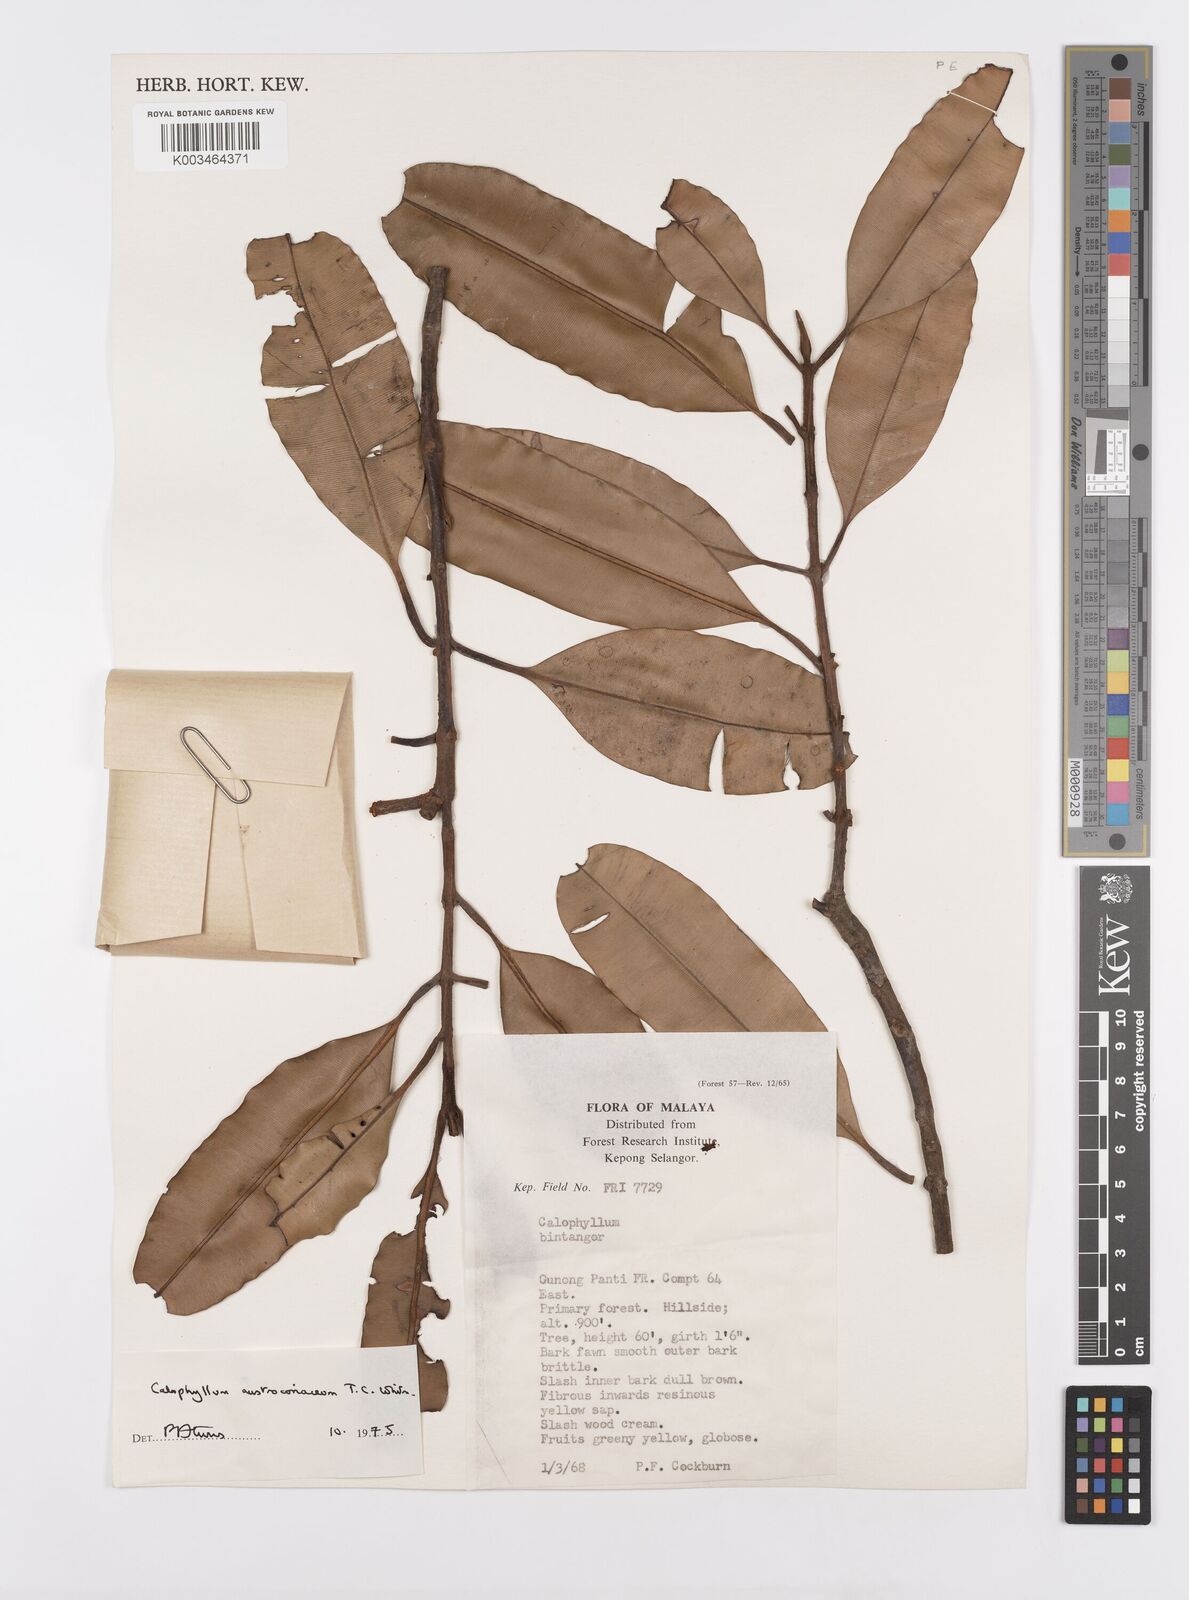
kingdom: Plantae
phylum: Tracheophyta
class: Magnoliopsida
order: Malpighiales
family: Calophyllaceae
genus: Calophyllum
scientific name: Calophyllum lanigerum
